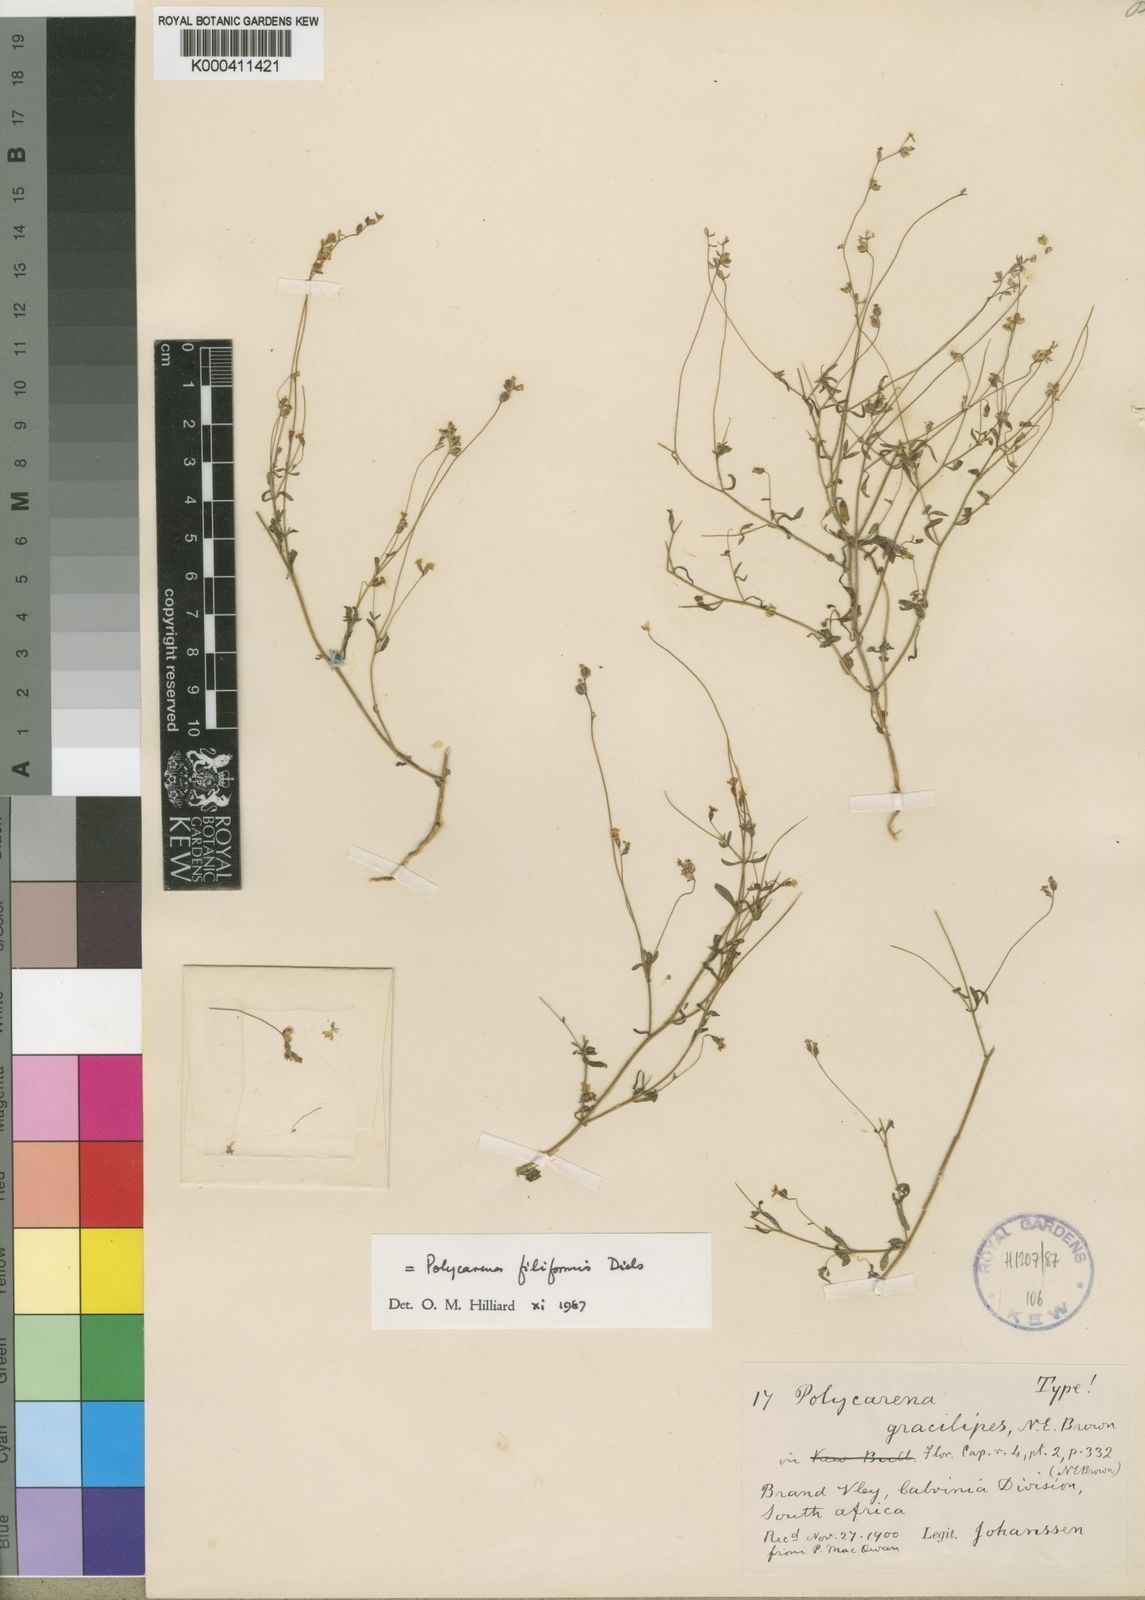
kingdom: Plantae
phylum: Tracheophyta
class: Magnoliopsida
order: Lamiales
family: Scrophulariaceae
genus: Polycarena
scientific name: Polycarena filiformis
